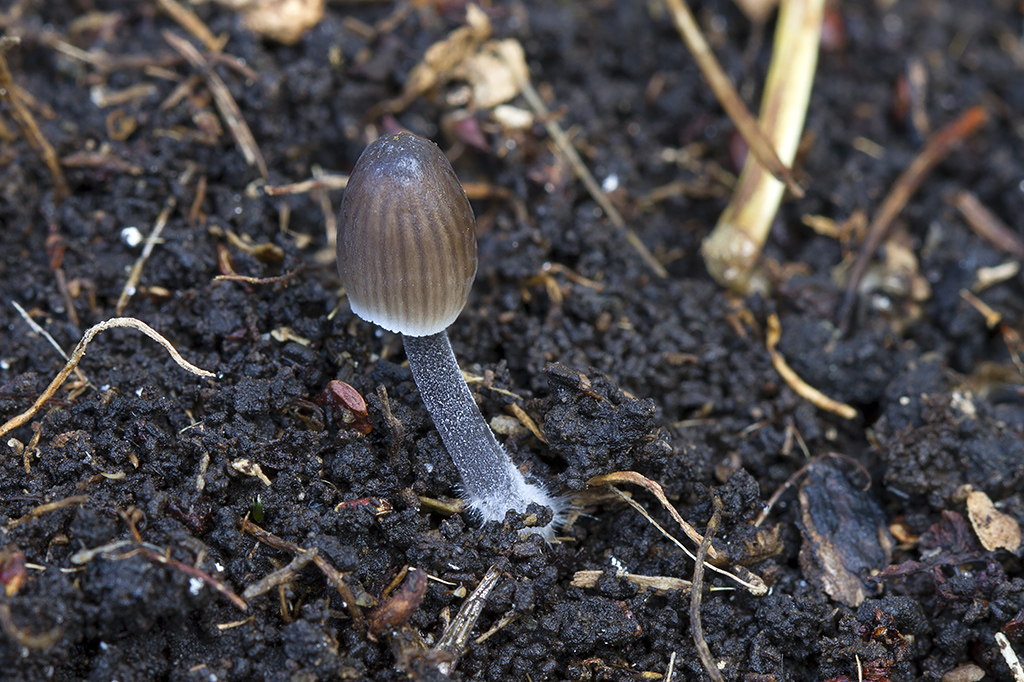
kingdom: Fungi
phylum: Basidiomycota
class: Agaricomycetes
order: Agaricales
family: Mycenaceae
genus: Mycena
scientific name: Mycena leptocephala
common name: klor-huesvamp
